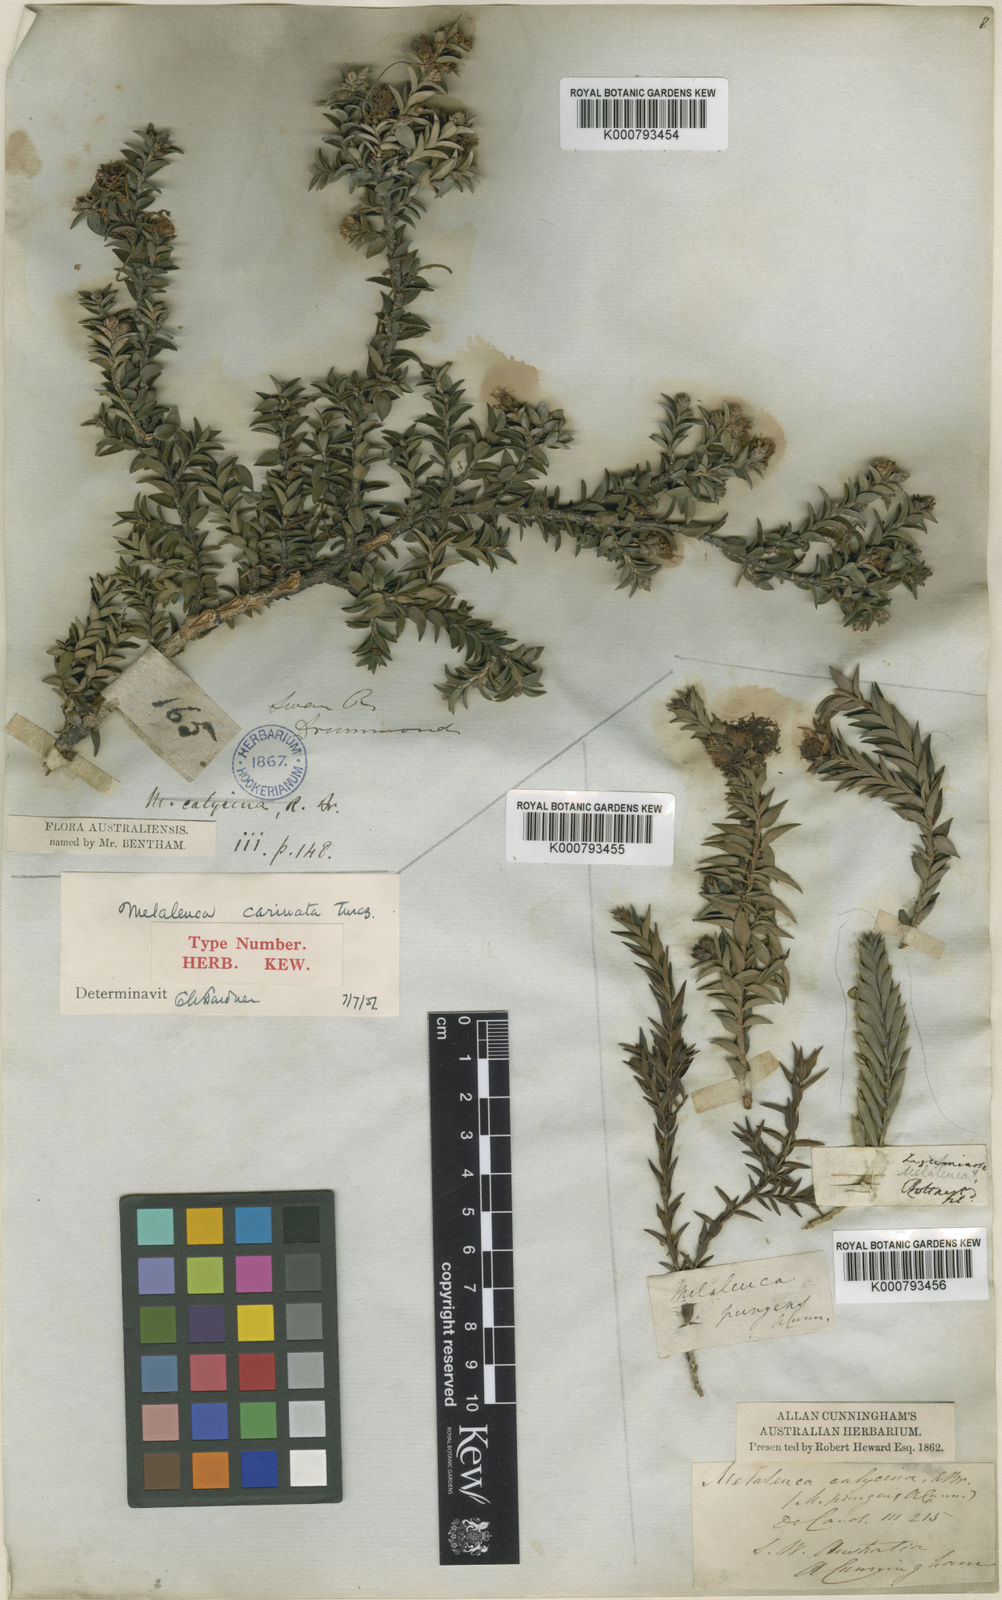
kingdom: Plantae
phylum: Tracheophyta
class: Magnoliopsida
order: Myrtales
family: Myrtaceae
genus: Melaleuca
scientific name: Melaleuca calycina
